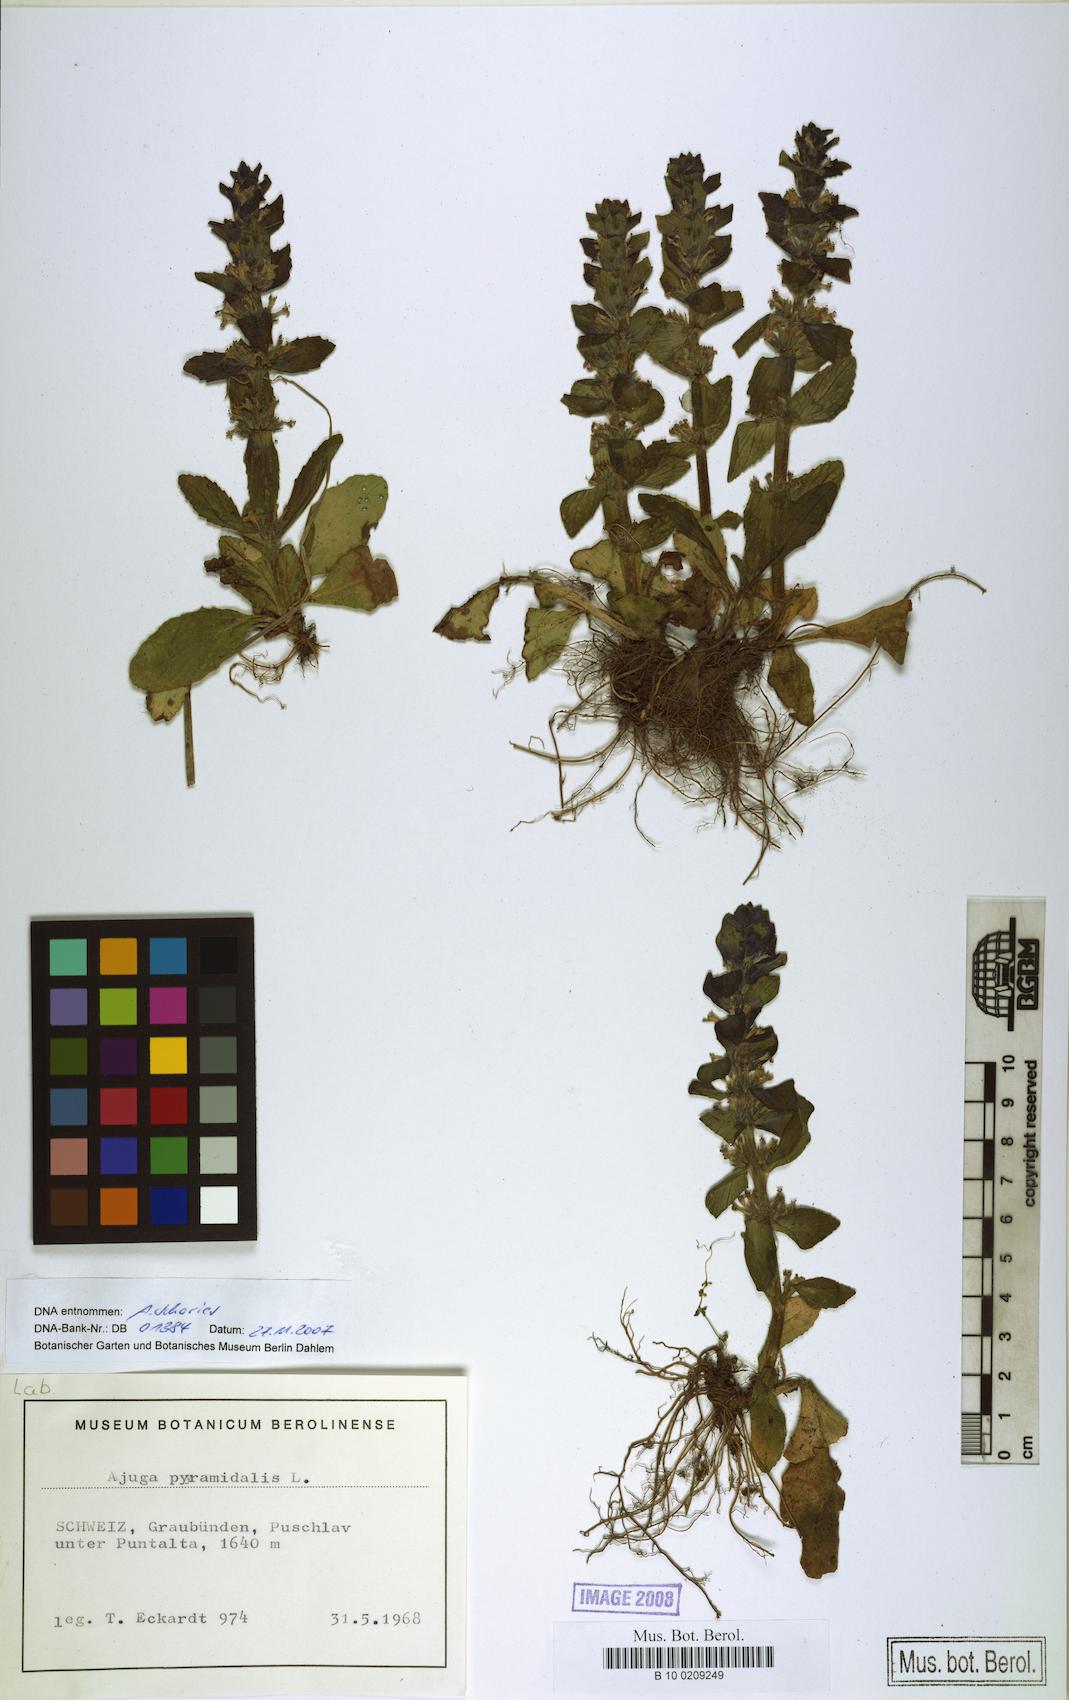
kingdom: Plantae
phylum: Tracheophyta
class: Magnoliopsida
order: Lamiales
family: Lamiaceae
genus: Ajuga
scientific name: Ajuga pyramidalis
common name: Pyramid bugle
